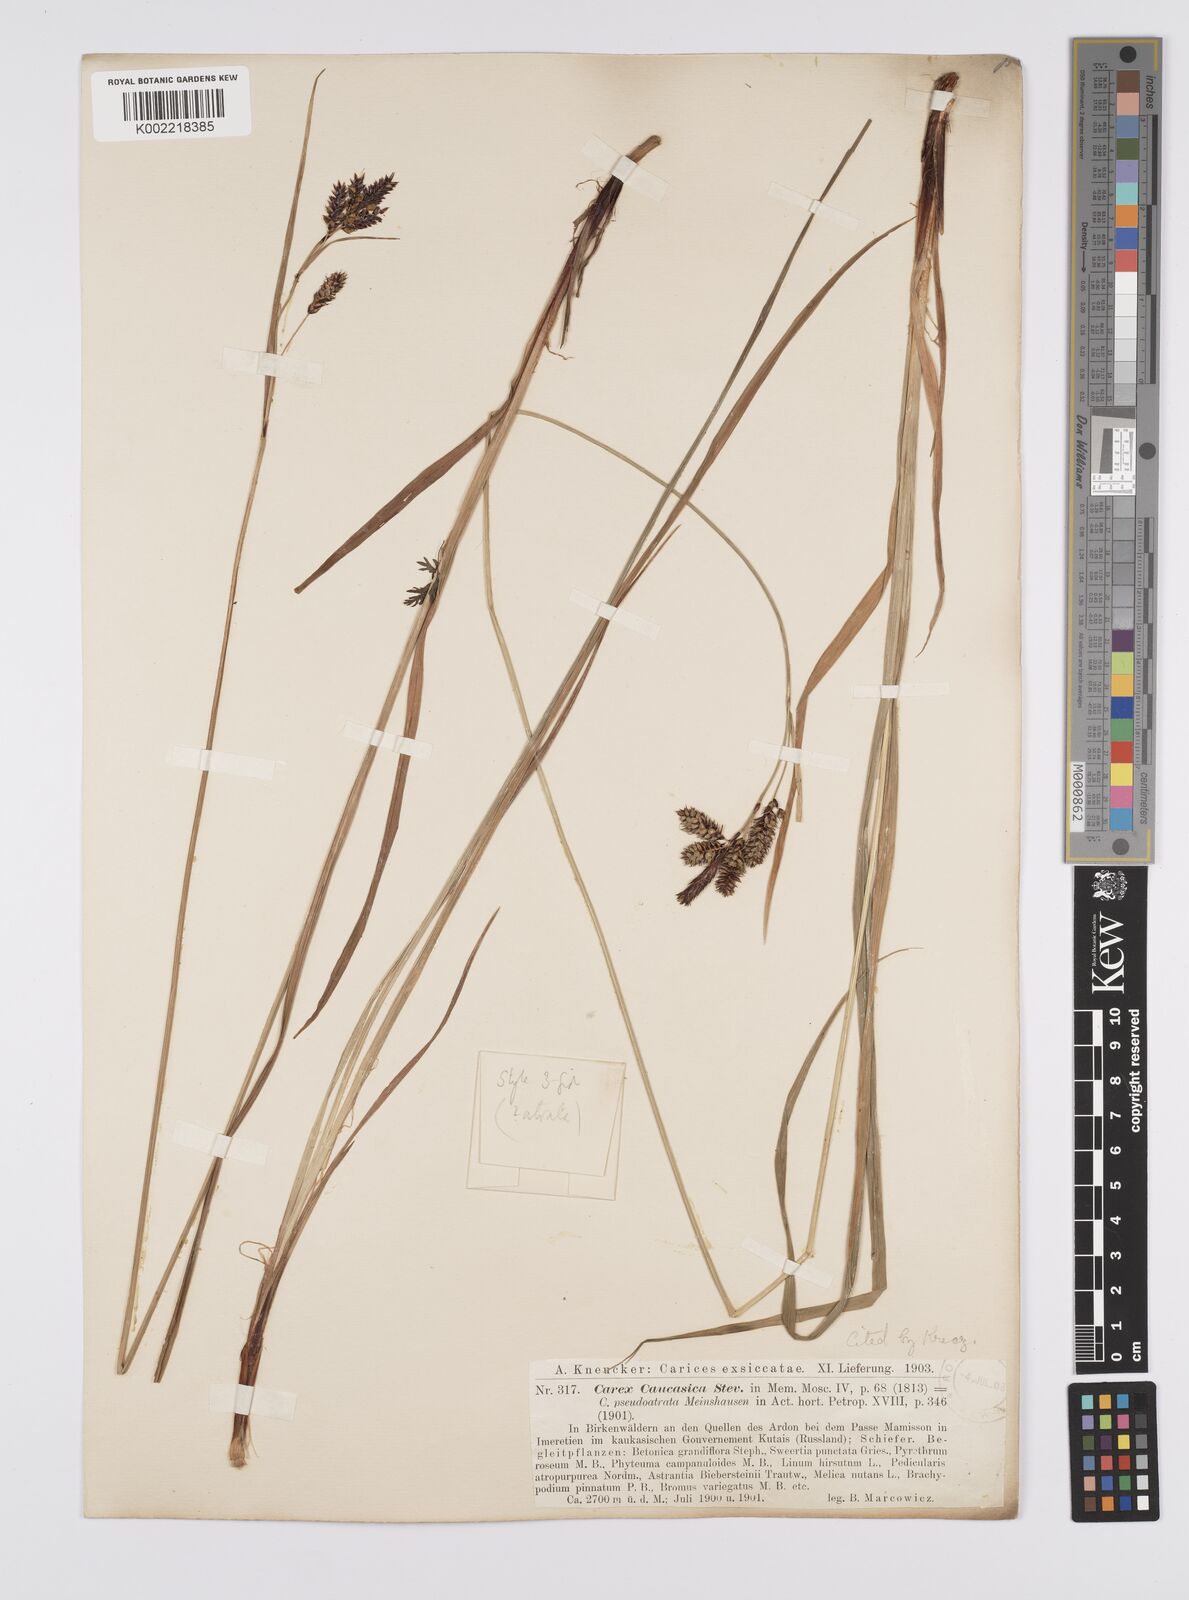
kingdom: Plantae
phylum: Tracheophyta
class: Liliopsida
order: Poales
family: Cyperaceae
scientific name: Cyperaceae
